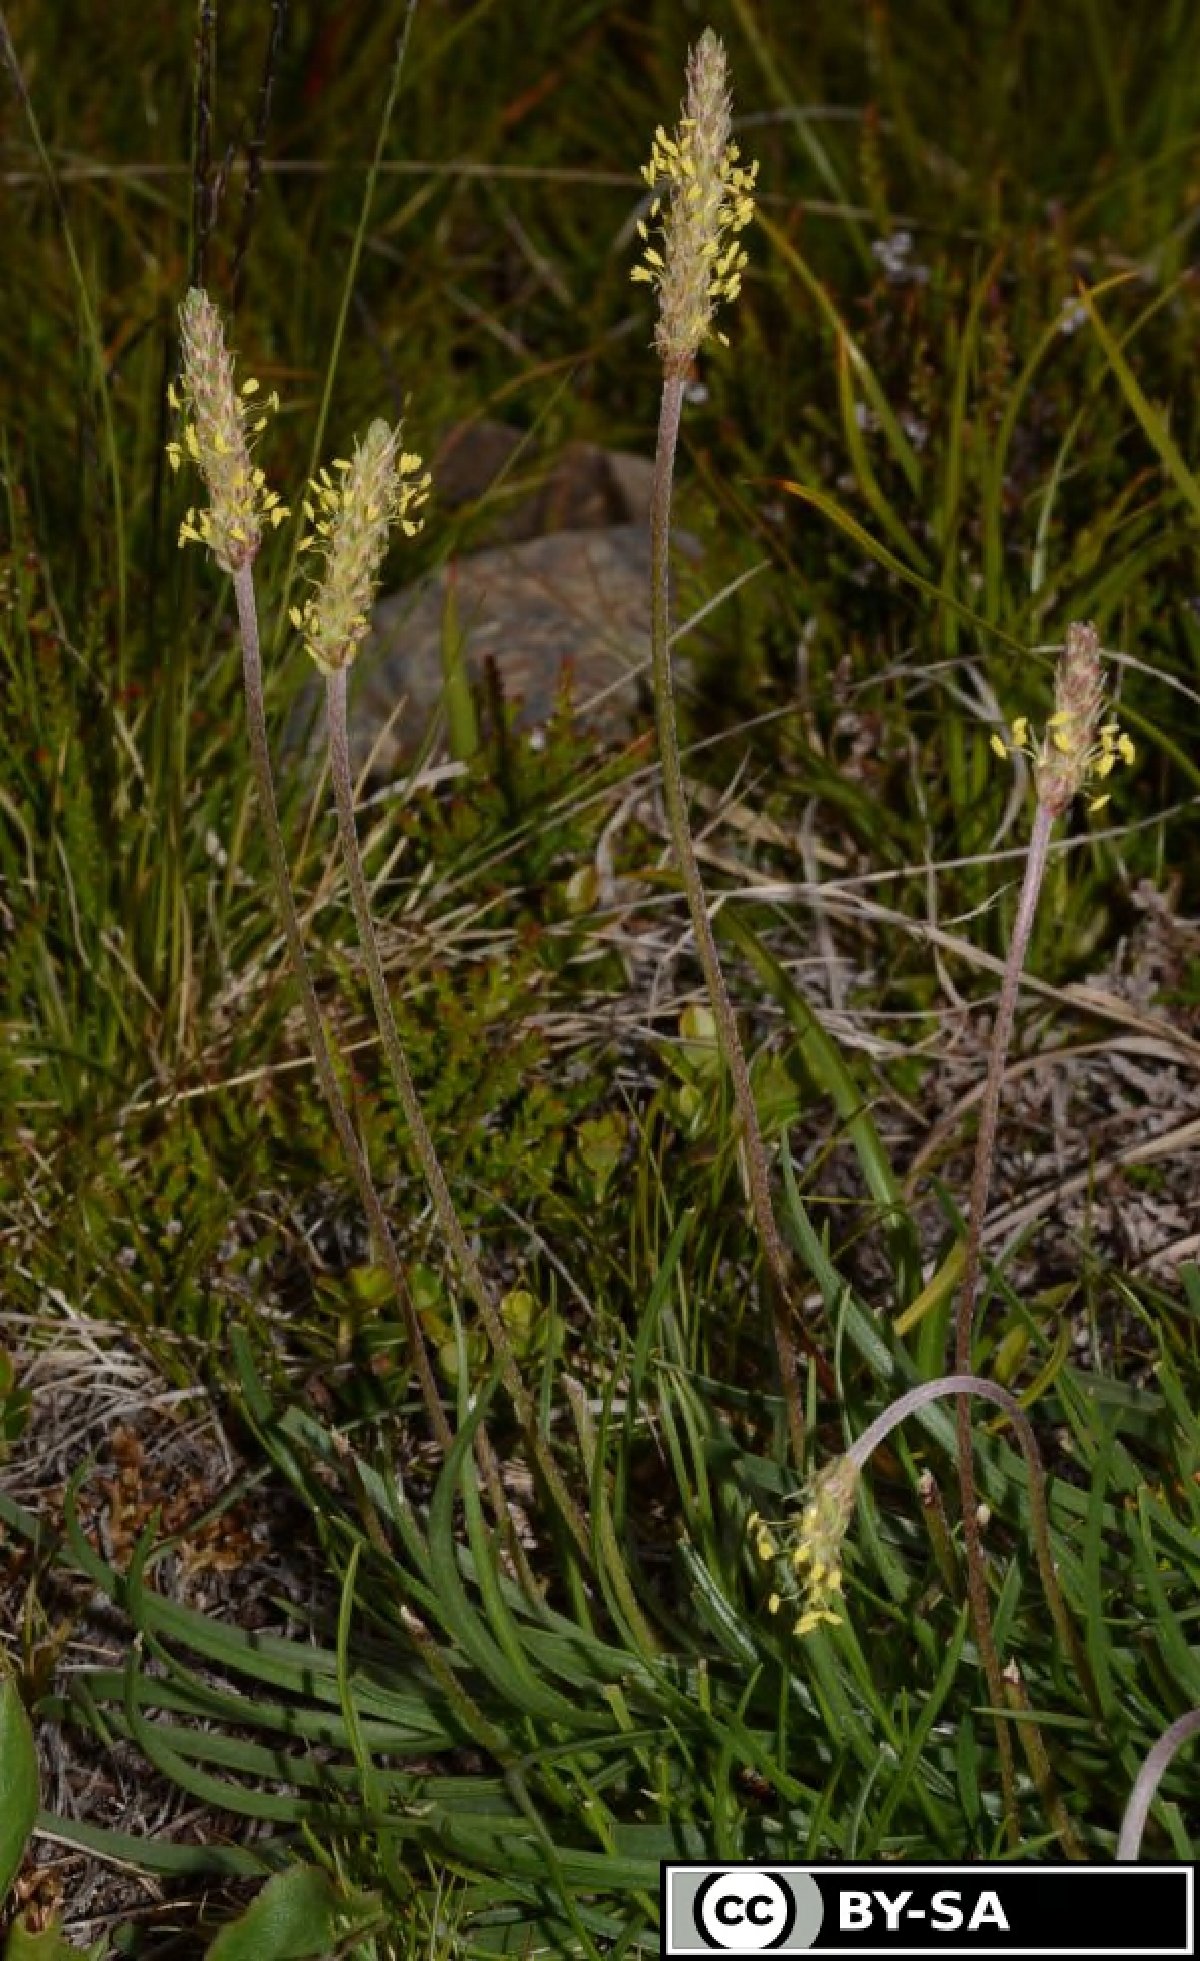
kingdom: Plantae
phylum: Tracheophyta
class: Magnoliopsida
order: Lamiales
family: Plantaginaceae
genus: Plantago
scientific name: Plantago maritima
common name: Sea plantain
